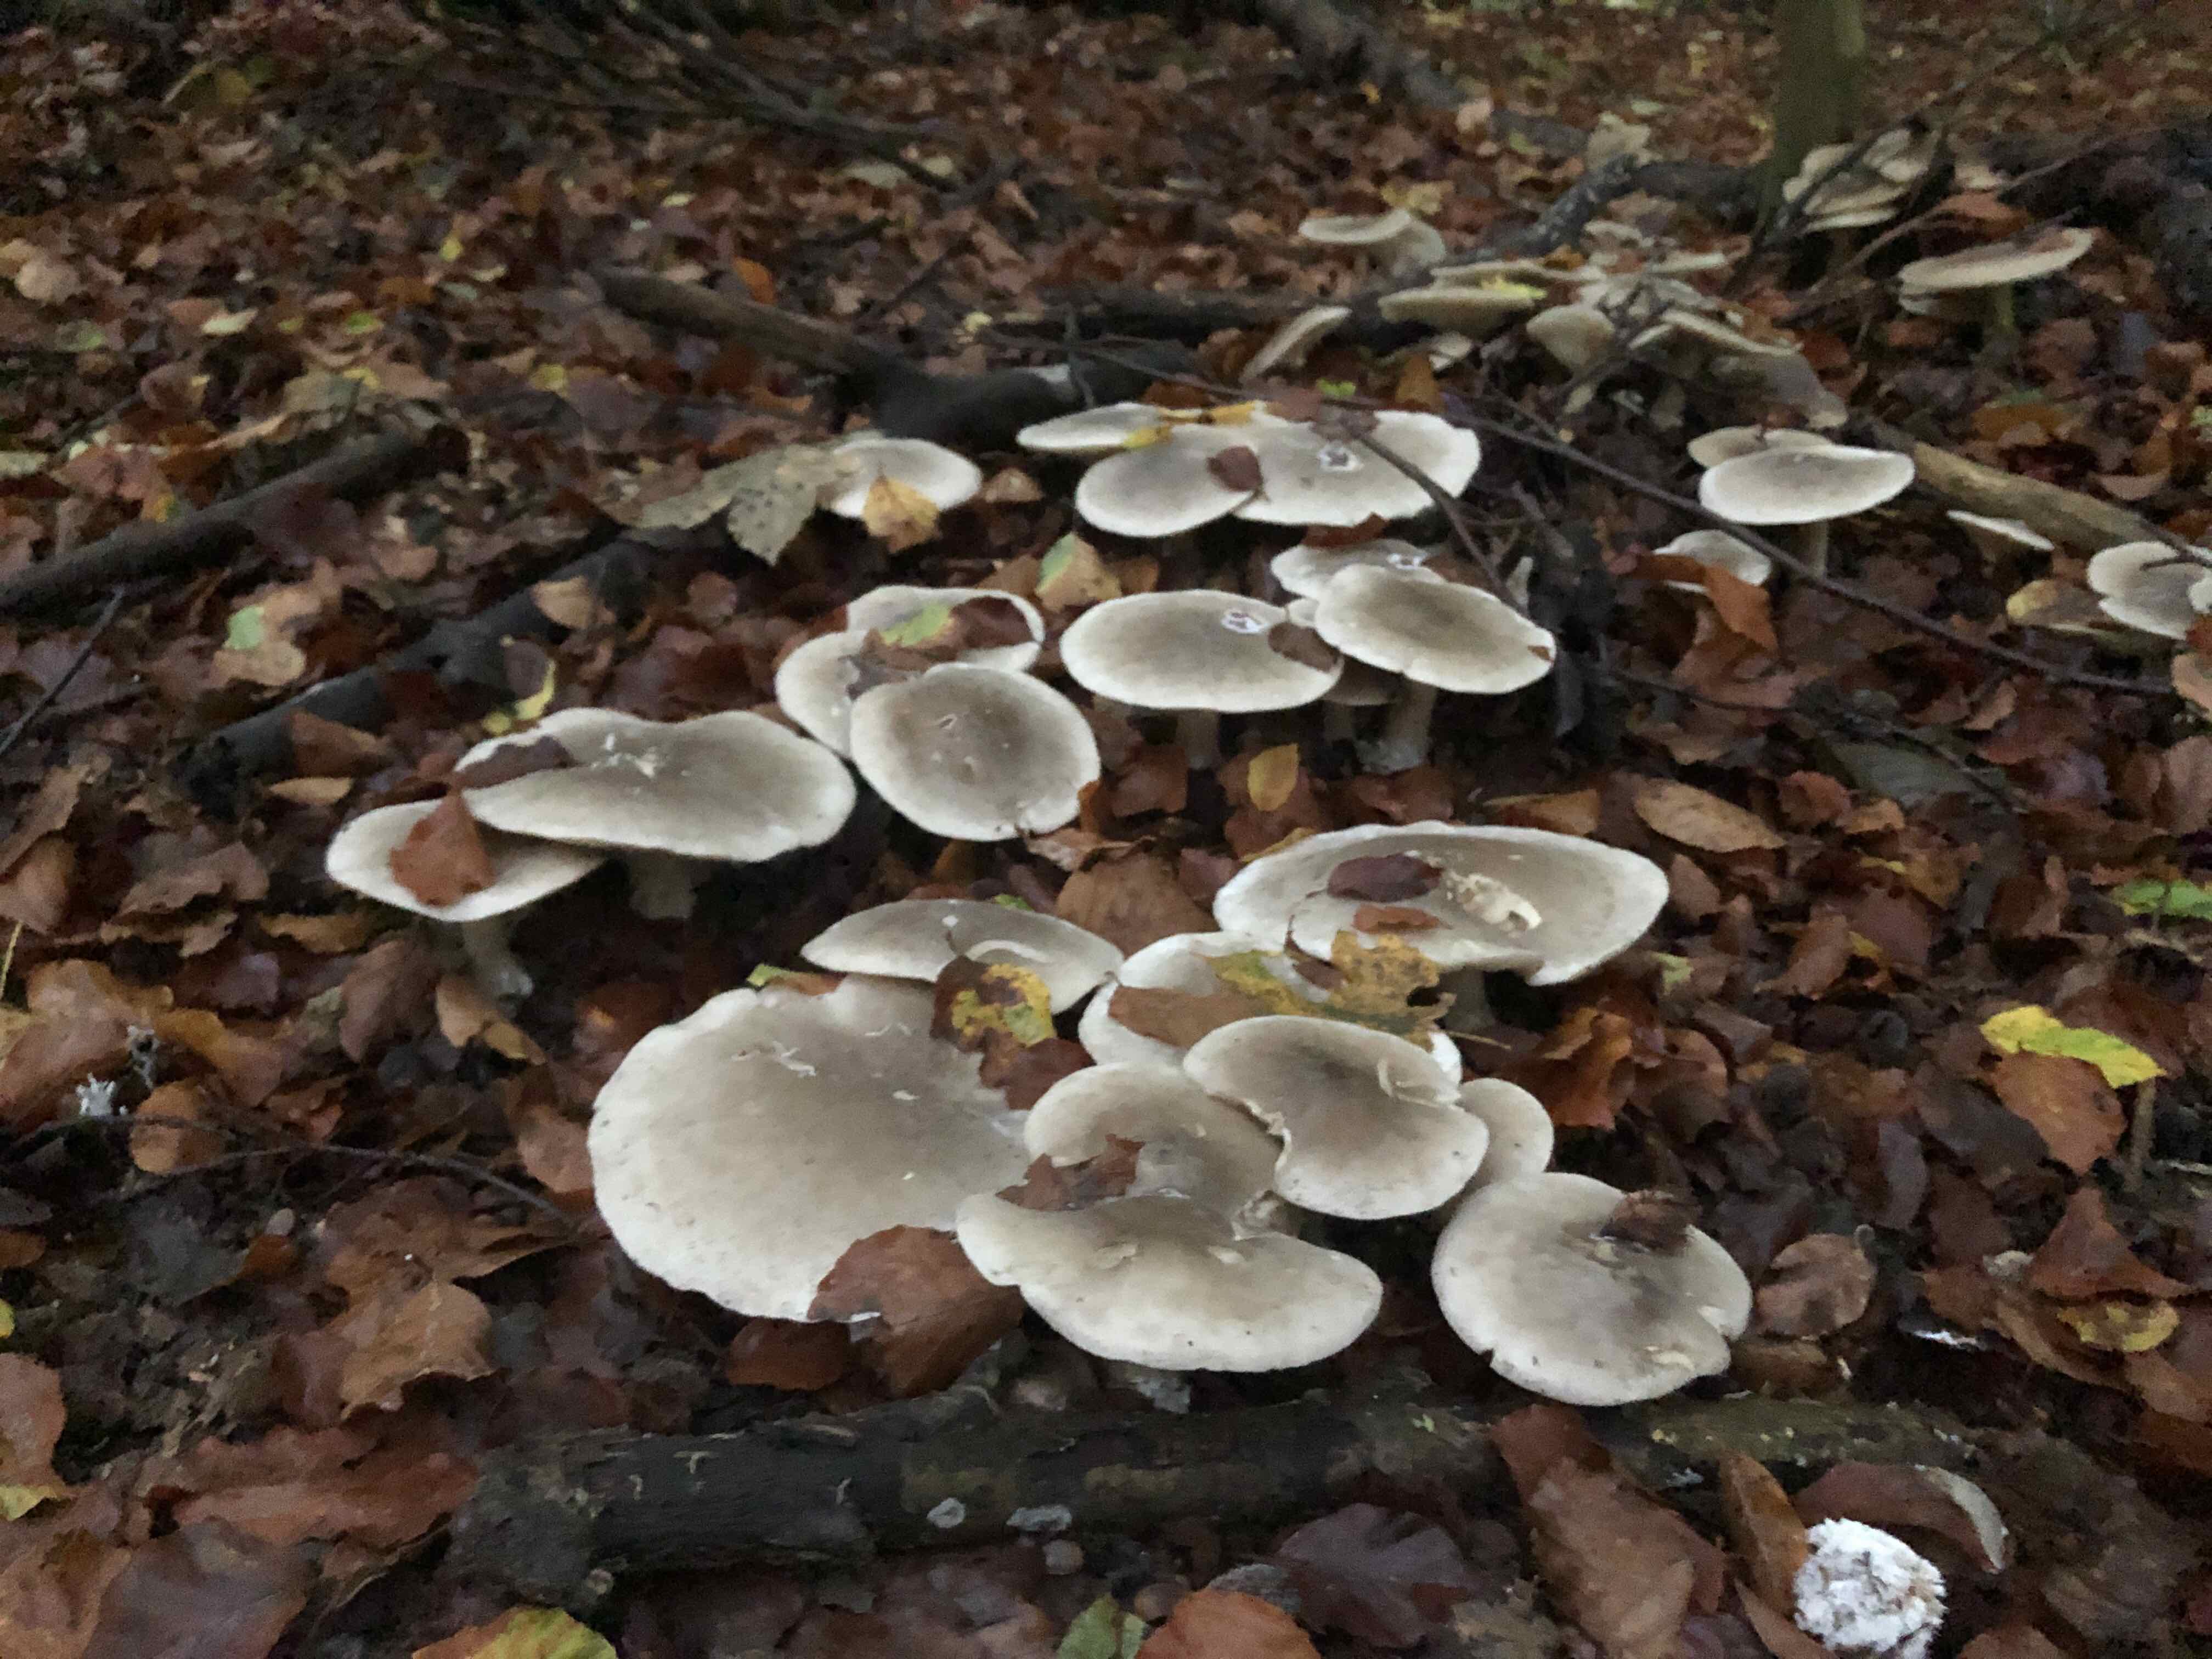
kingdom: Fungi
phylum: Basidiomycota
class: Agaricomycetes
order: Agaricales
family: Tricholomataceae
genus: Clitocybe
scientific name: Clitocybe nebularis
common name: tåge-tragthat
